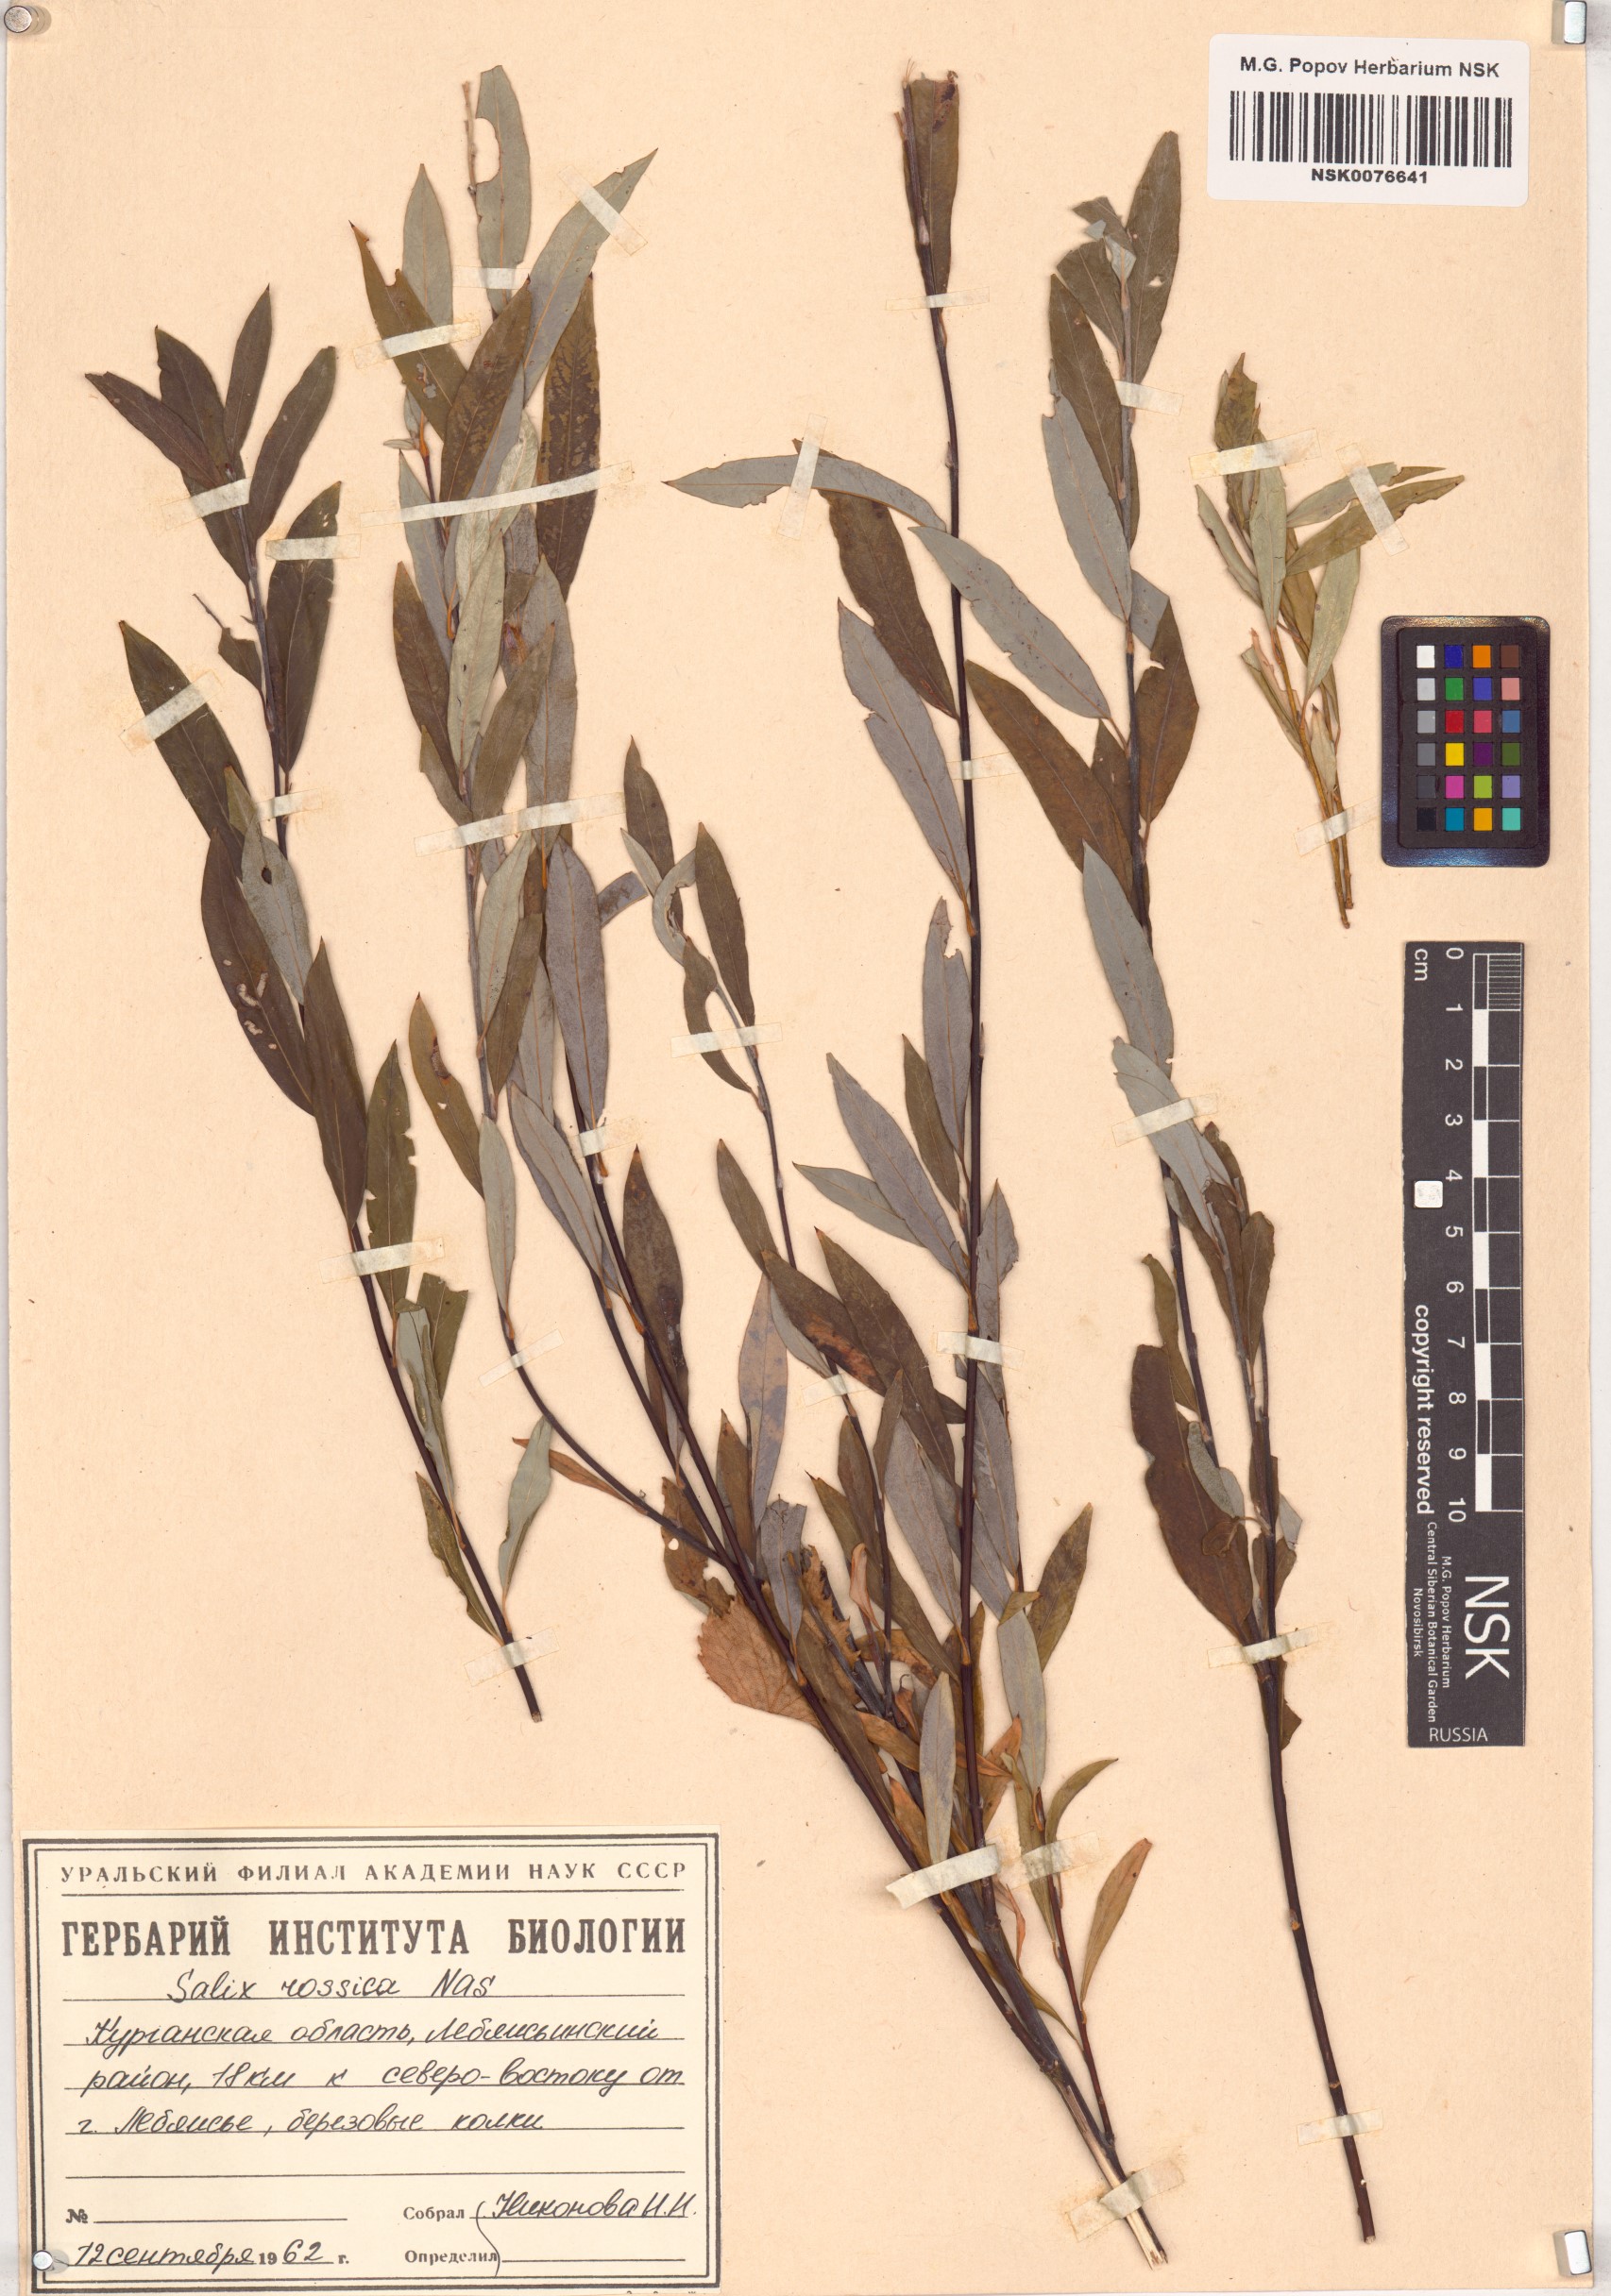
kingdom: Plantae
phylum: Tracheophyta
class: Magnoliopsida
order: Malpighiales
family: Salicaceae
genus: Salix
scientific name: Salix viminalis
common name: Osier
